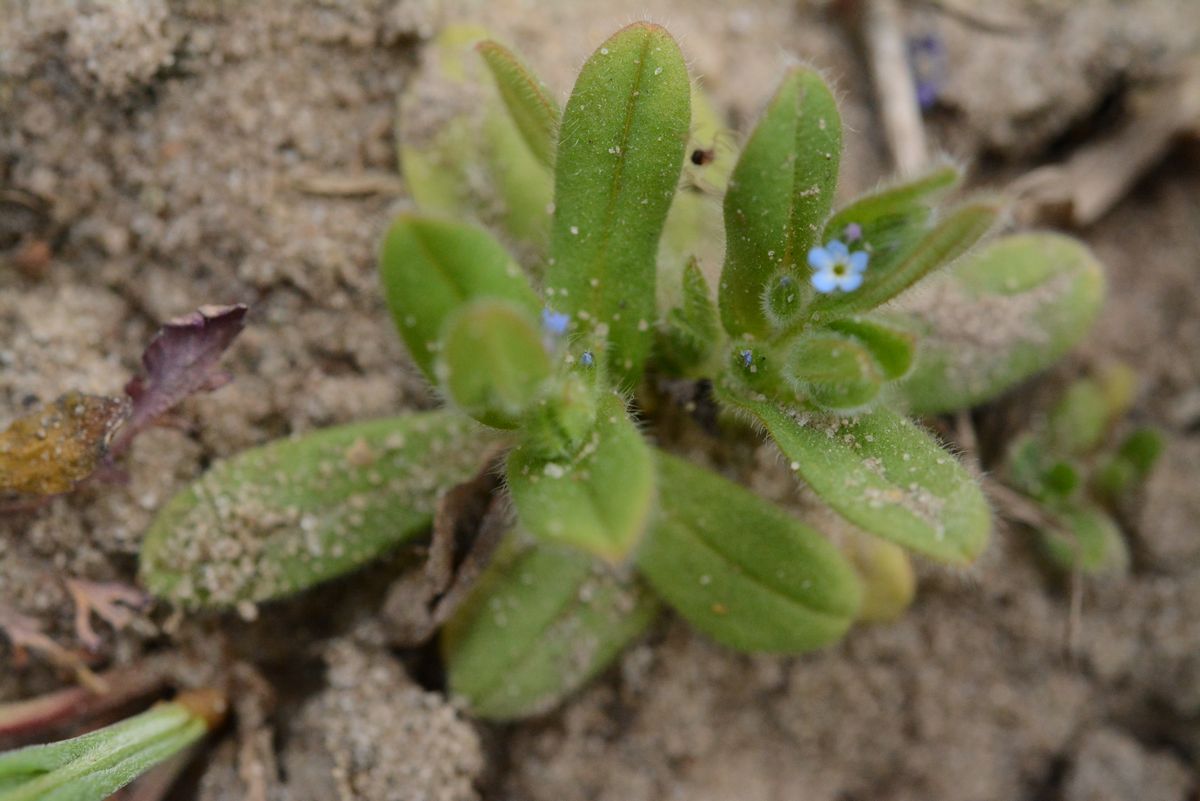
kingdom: Plantae
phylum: Tracheophyta
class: Magnoliopsida
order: Boraginales
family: Boraginaceae
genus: Myosotis
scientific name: Myosotis stricta
